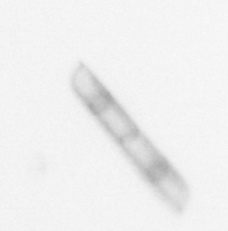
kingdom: Chromista
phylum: Ochrophyta
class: Bacillariophyceae
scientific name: Bacillariophyceae
